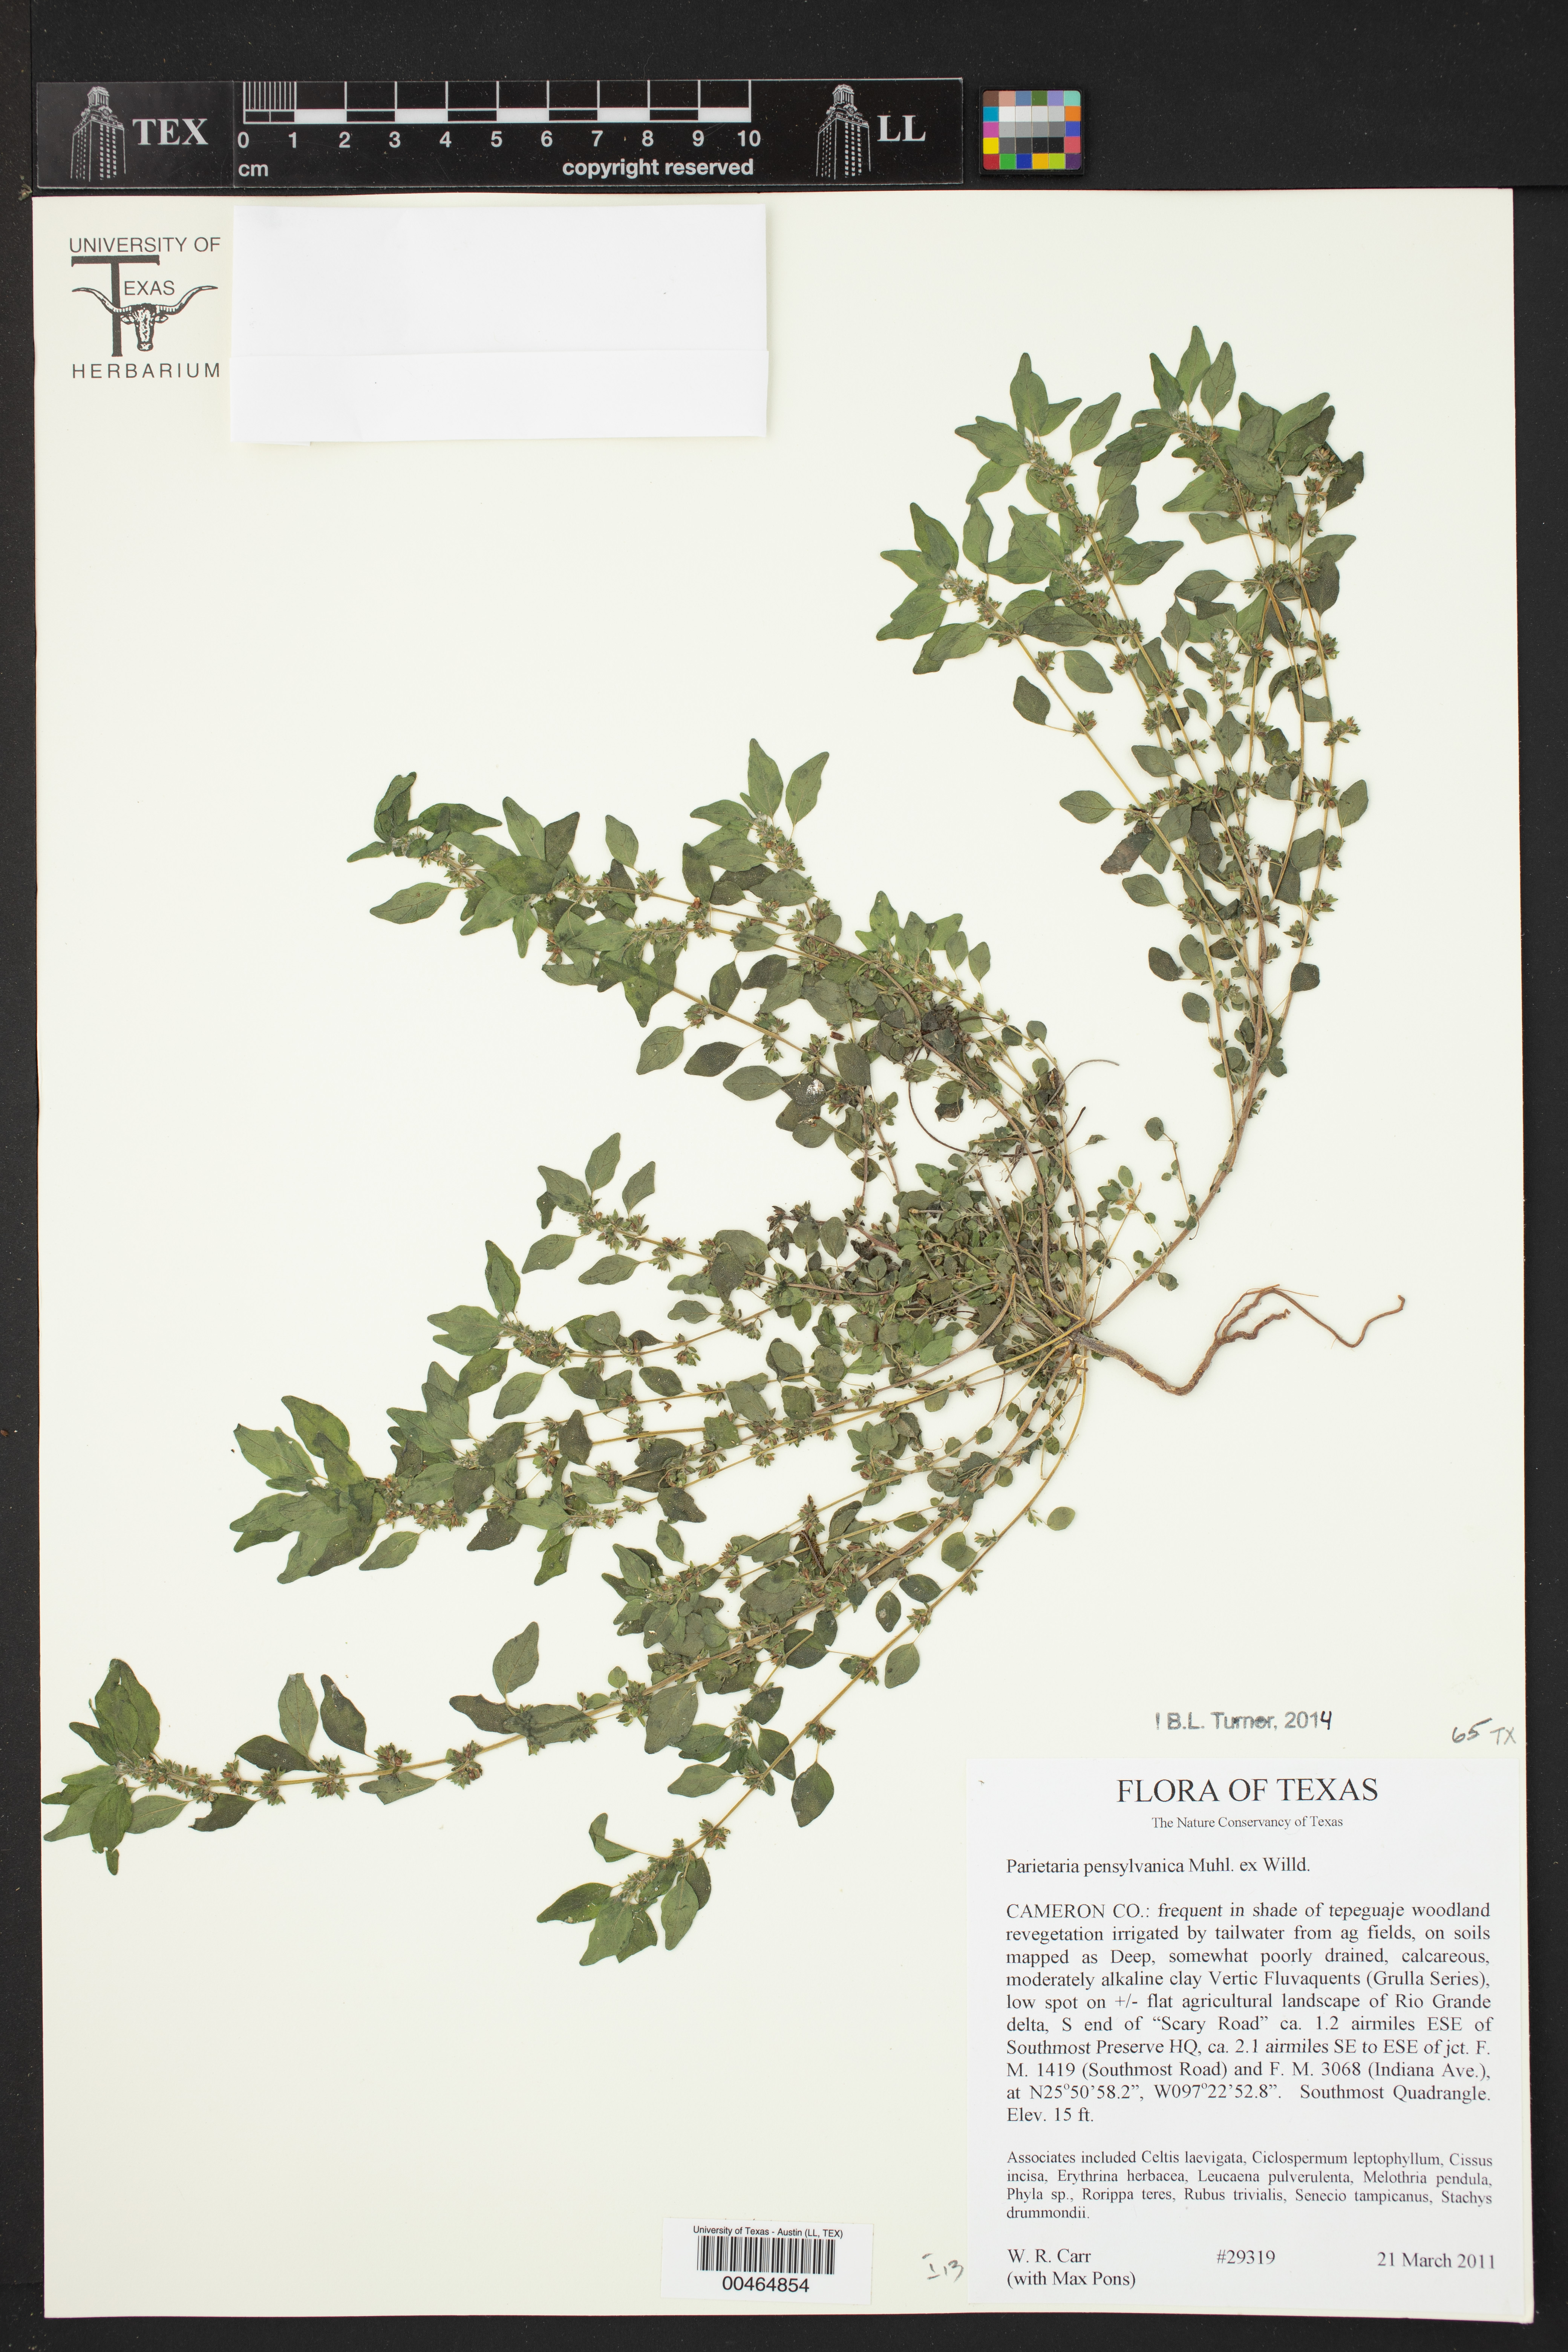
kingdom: Plantae
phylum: Tracheophyta
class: Magnoliopsida
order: Rosales
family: Urticaceae
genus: Parietaria
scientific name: Parietaria pensylvanica
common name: Pennsylvania pellitory
